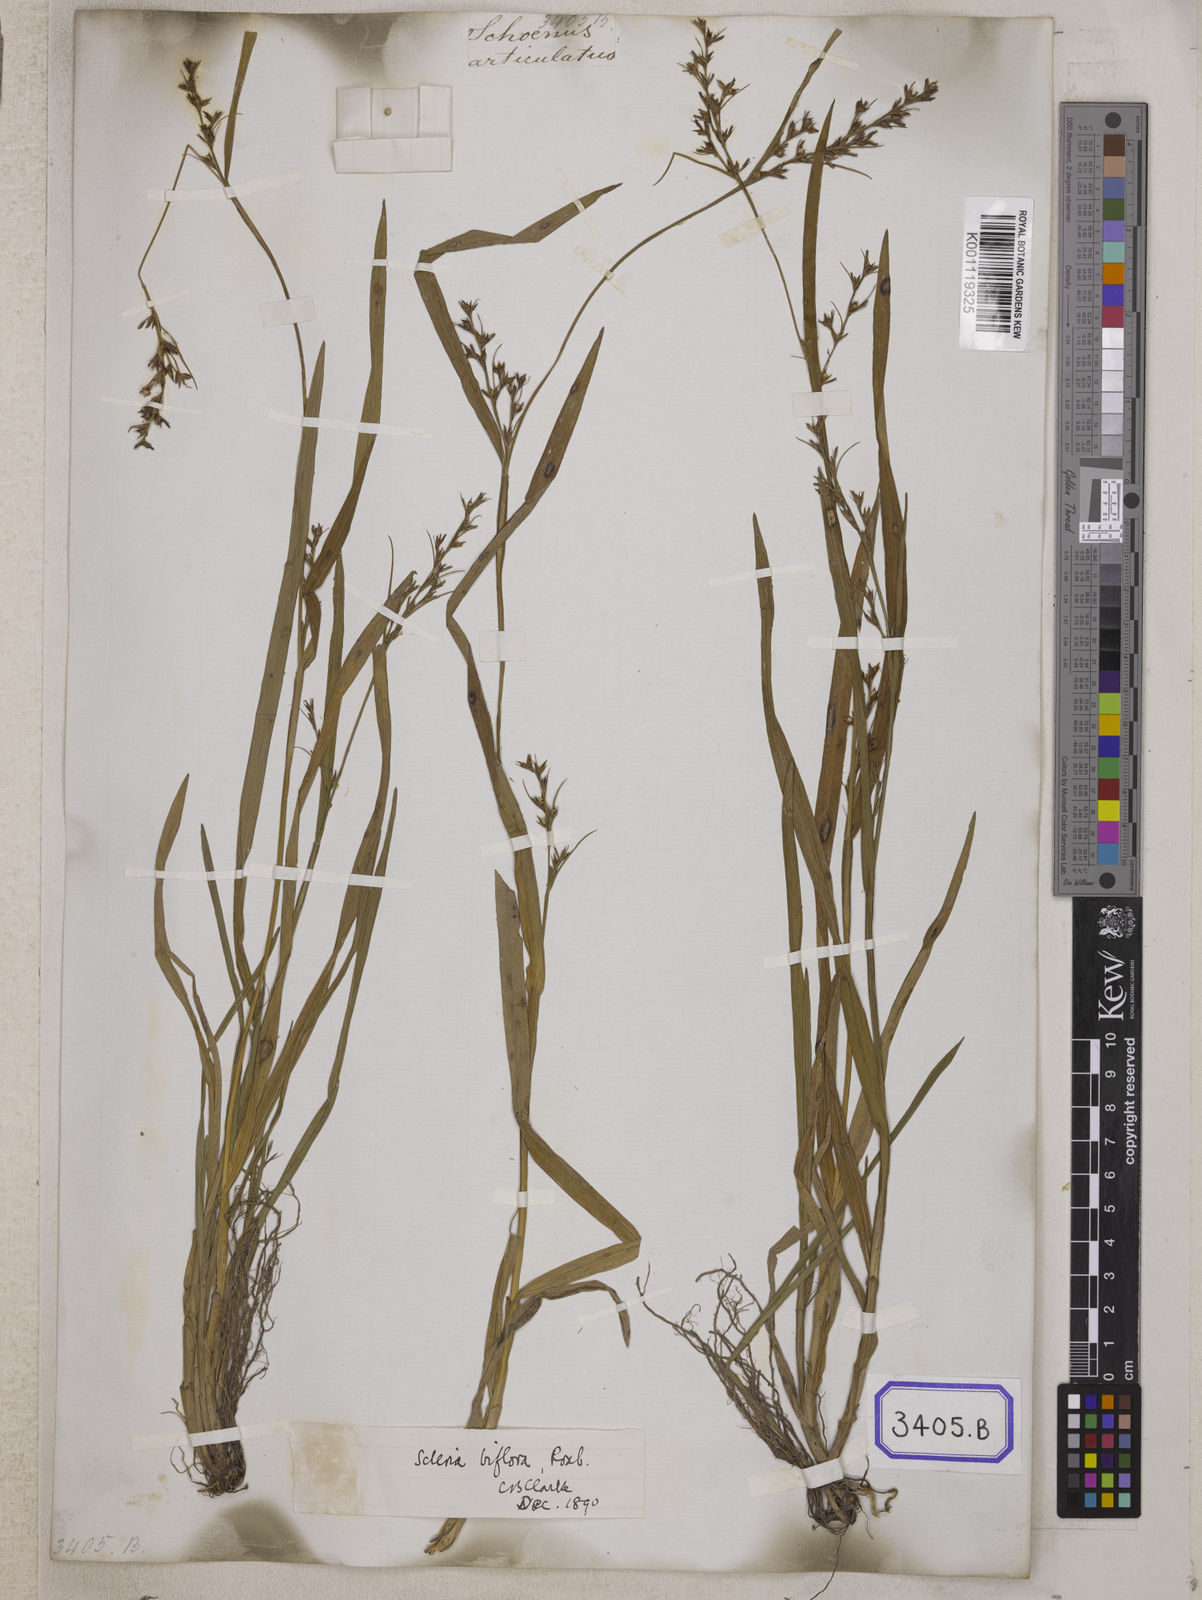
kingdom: Plantae
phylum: Tracheophyta
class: Liliopsida
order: Poales
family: Cyperaceae
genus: Hypolytrum
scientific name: Hypolytrum
